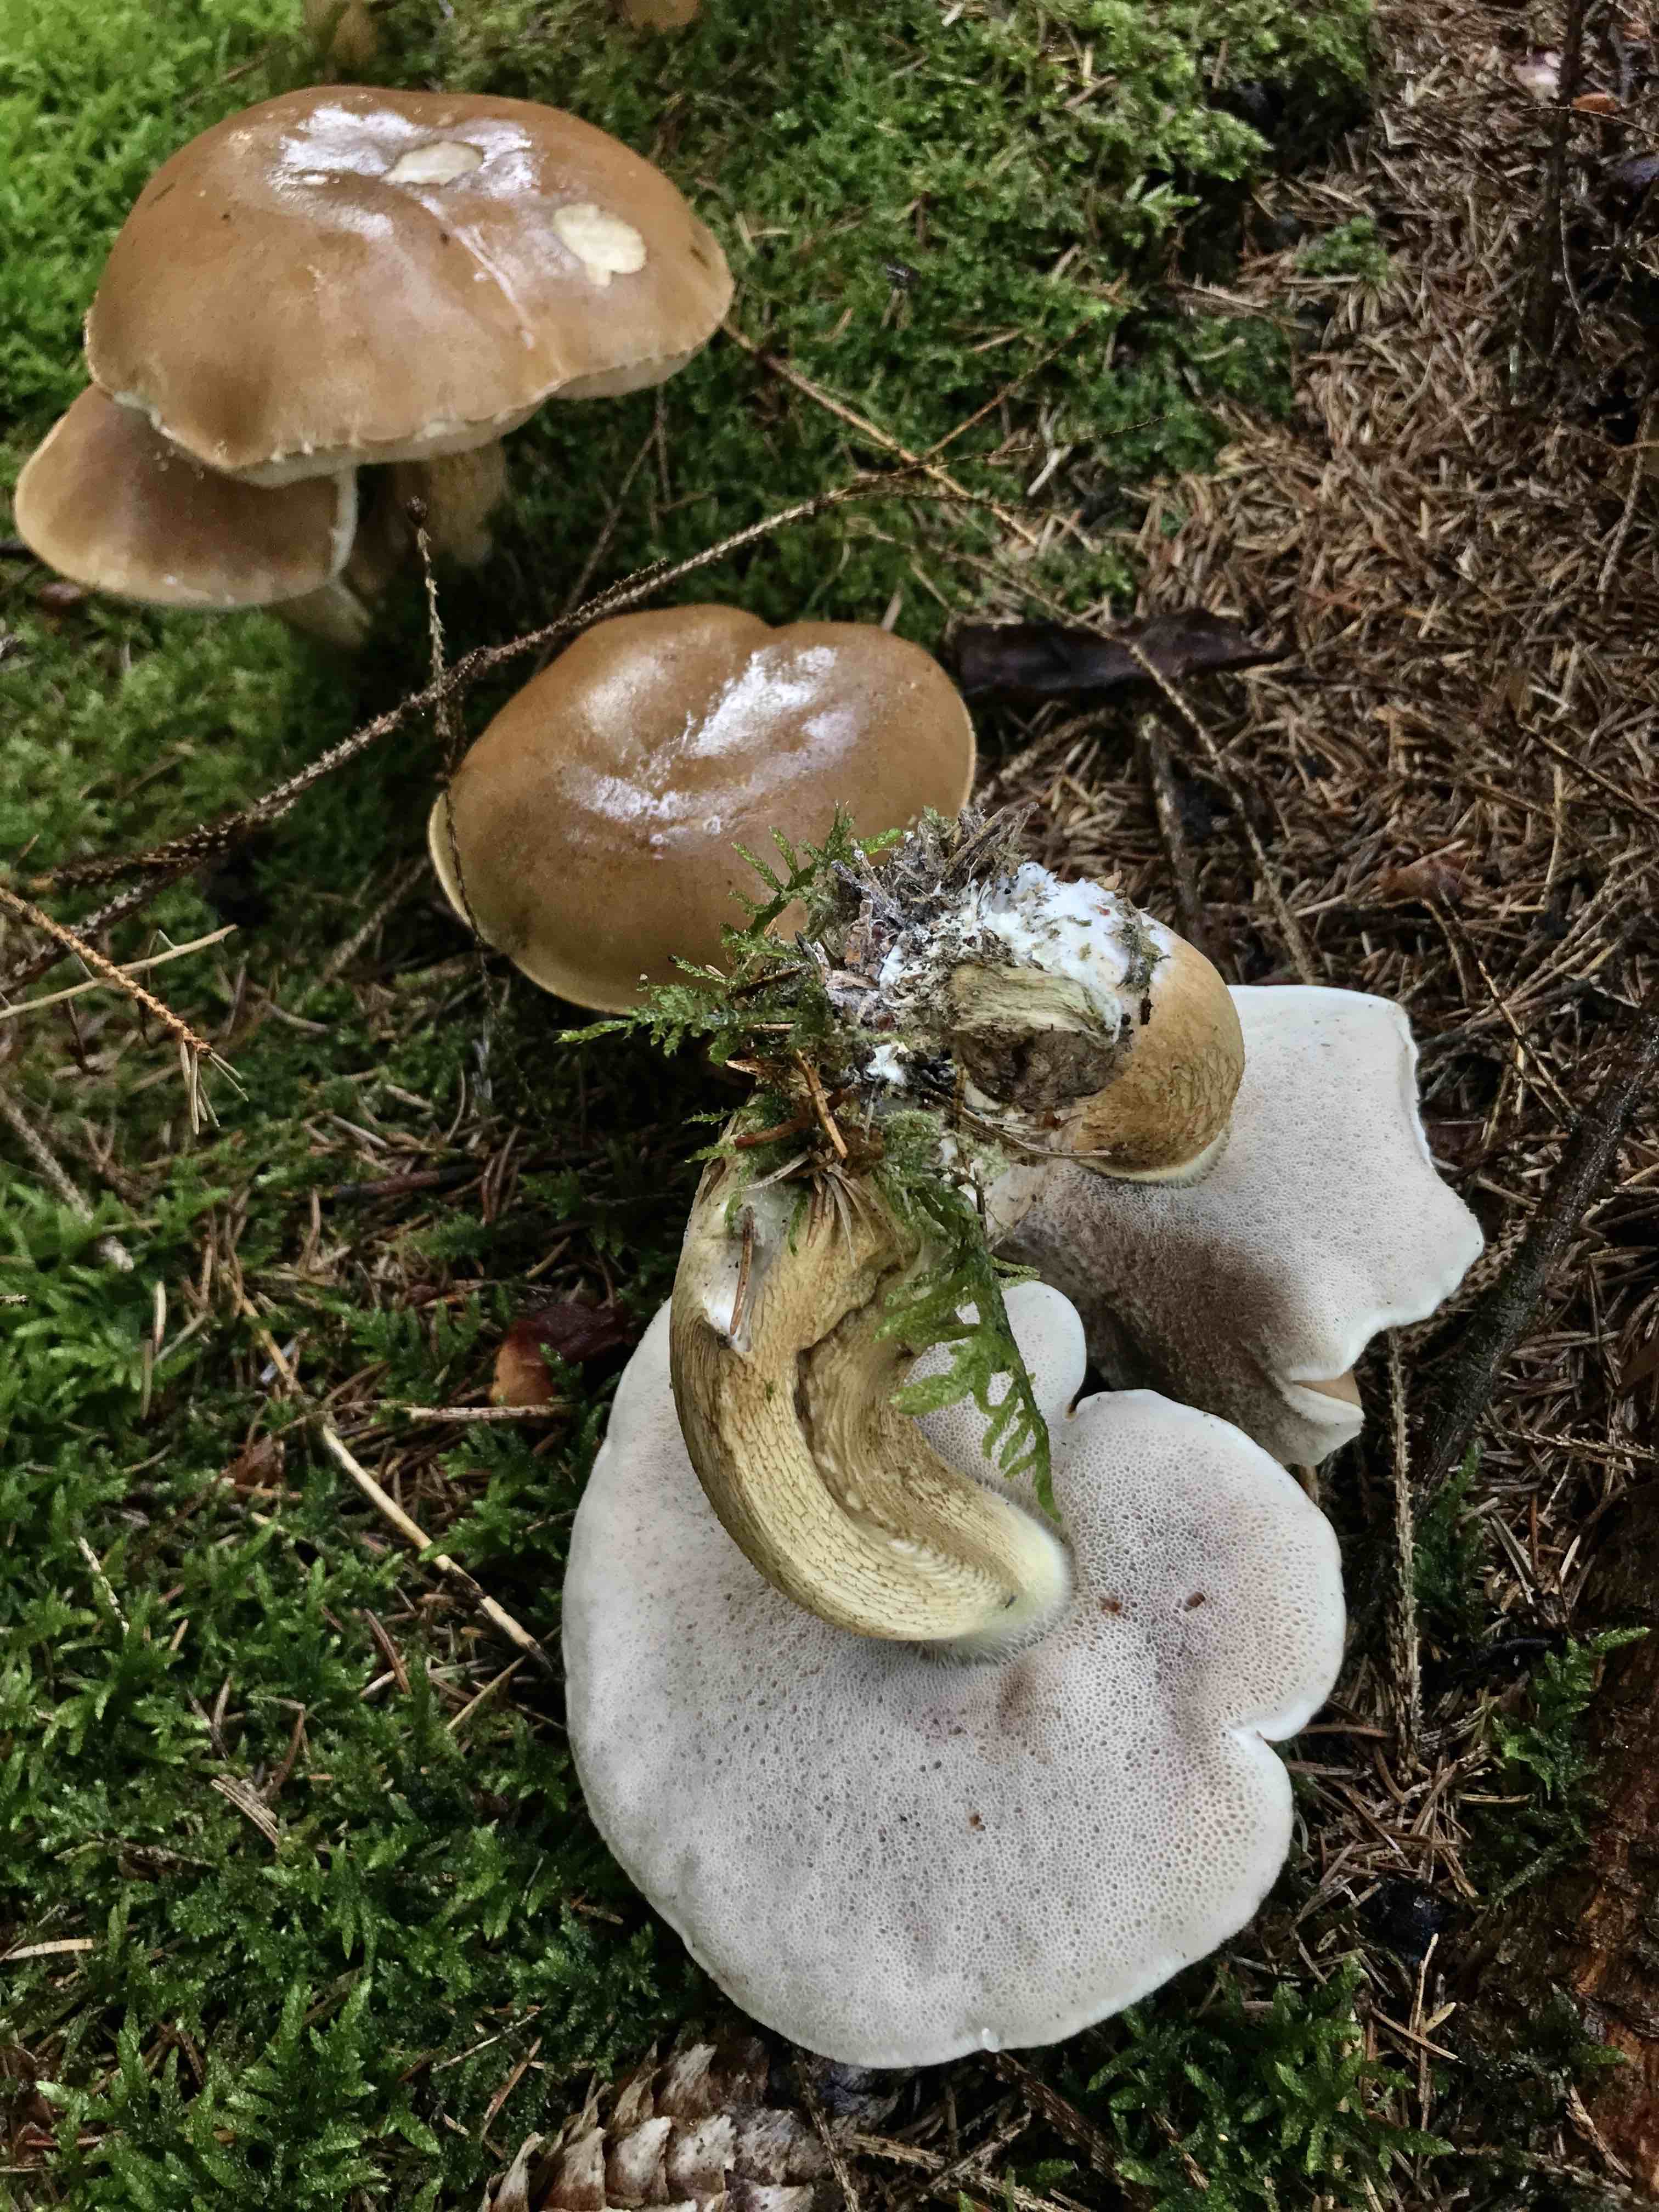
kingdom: Fungi
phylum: Basidiomycota
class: Agaricomycetes
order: Boletales
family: Boletaceae
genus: Tylopilus
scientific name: Tylopilus felleus
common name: galderørhat
